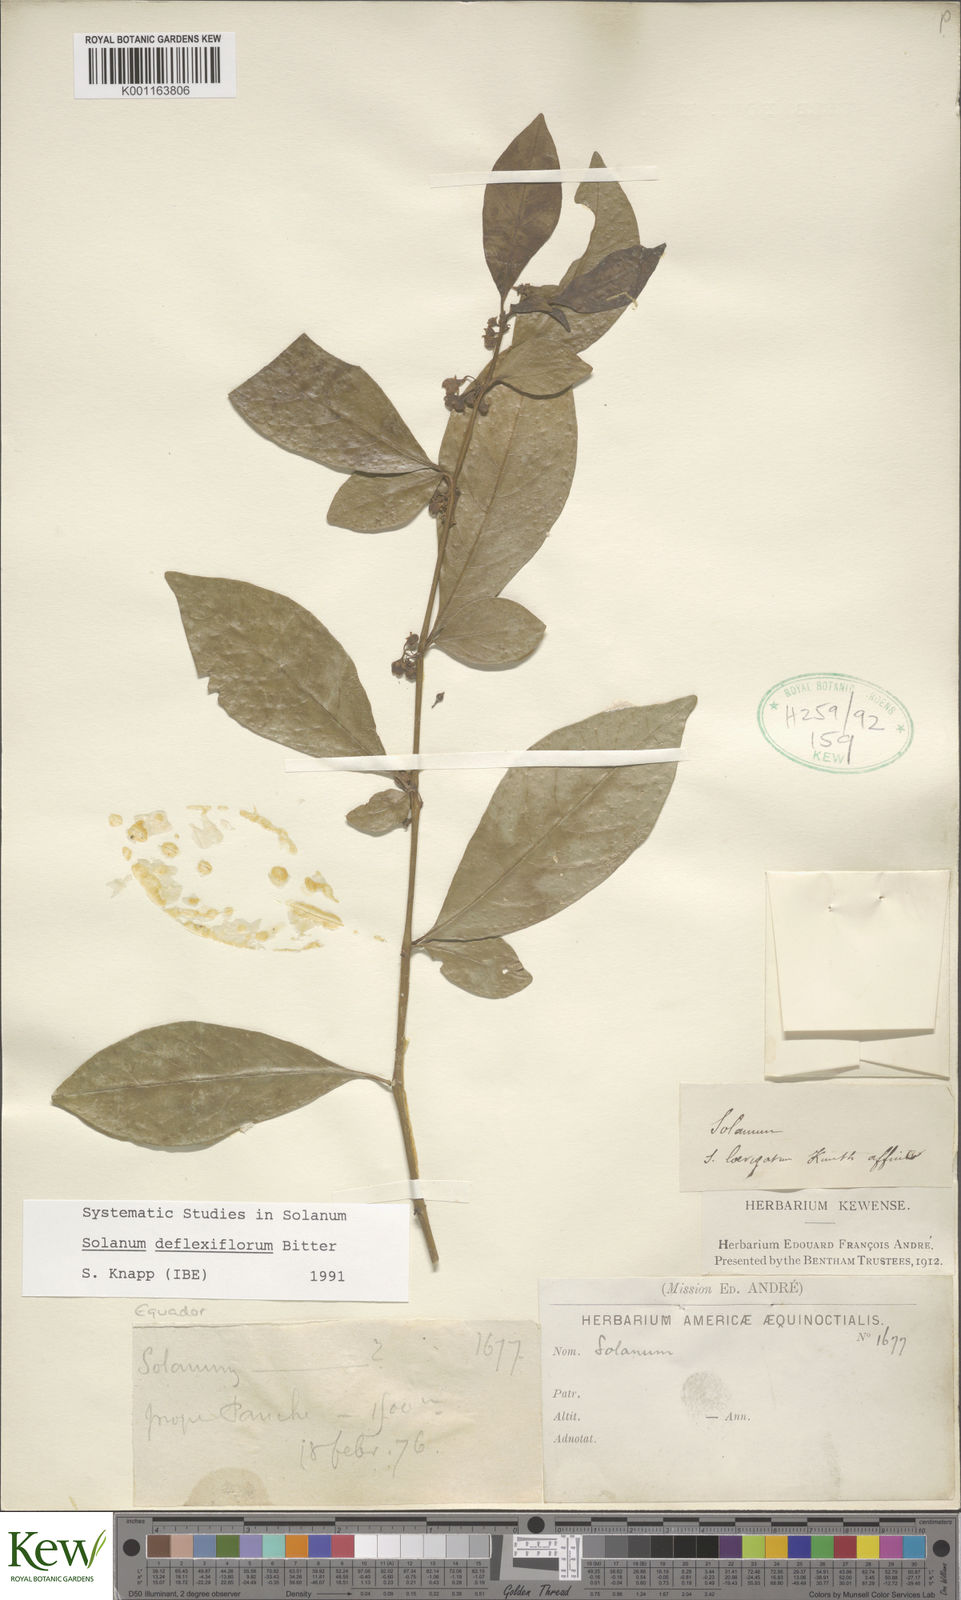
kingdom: Plantae
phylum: Tracheophyta
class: Magnoliopsida
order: Solanales
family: Solanaceae
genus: Solanum
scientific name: Solanum deflexiflorum
